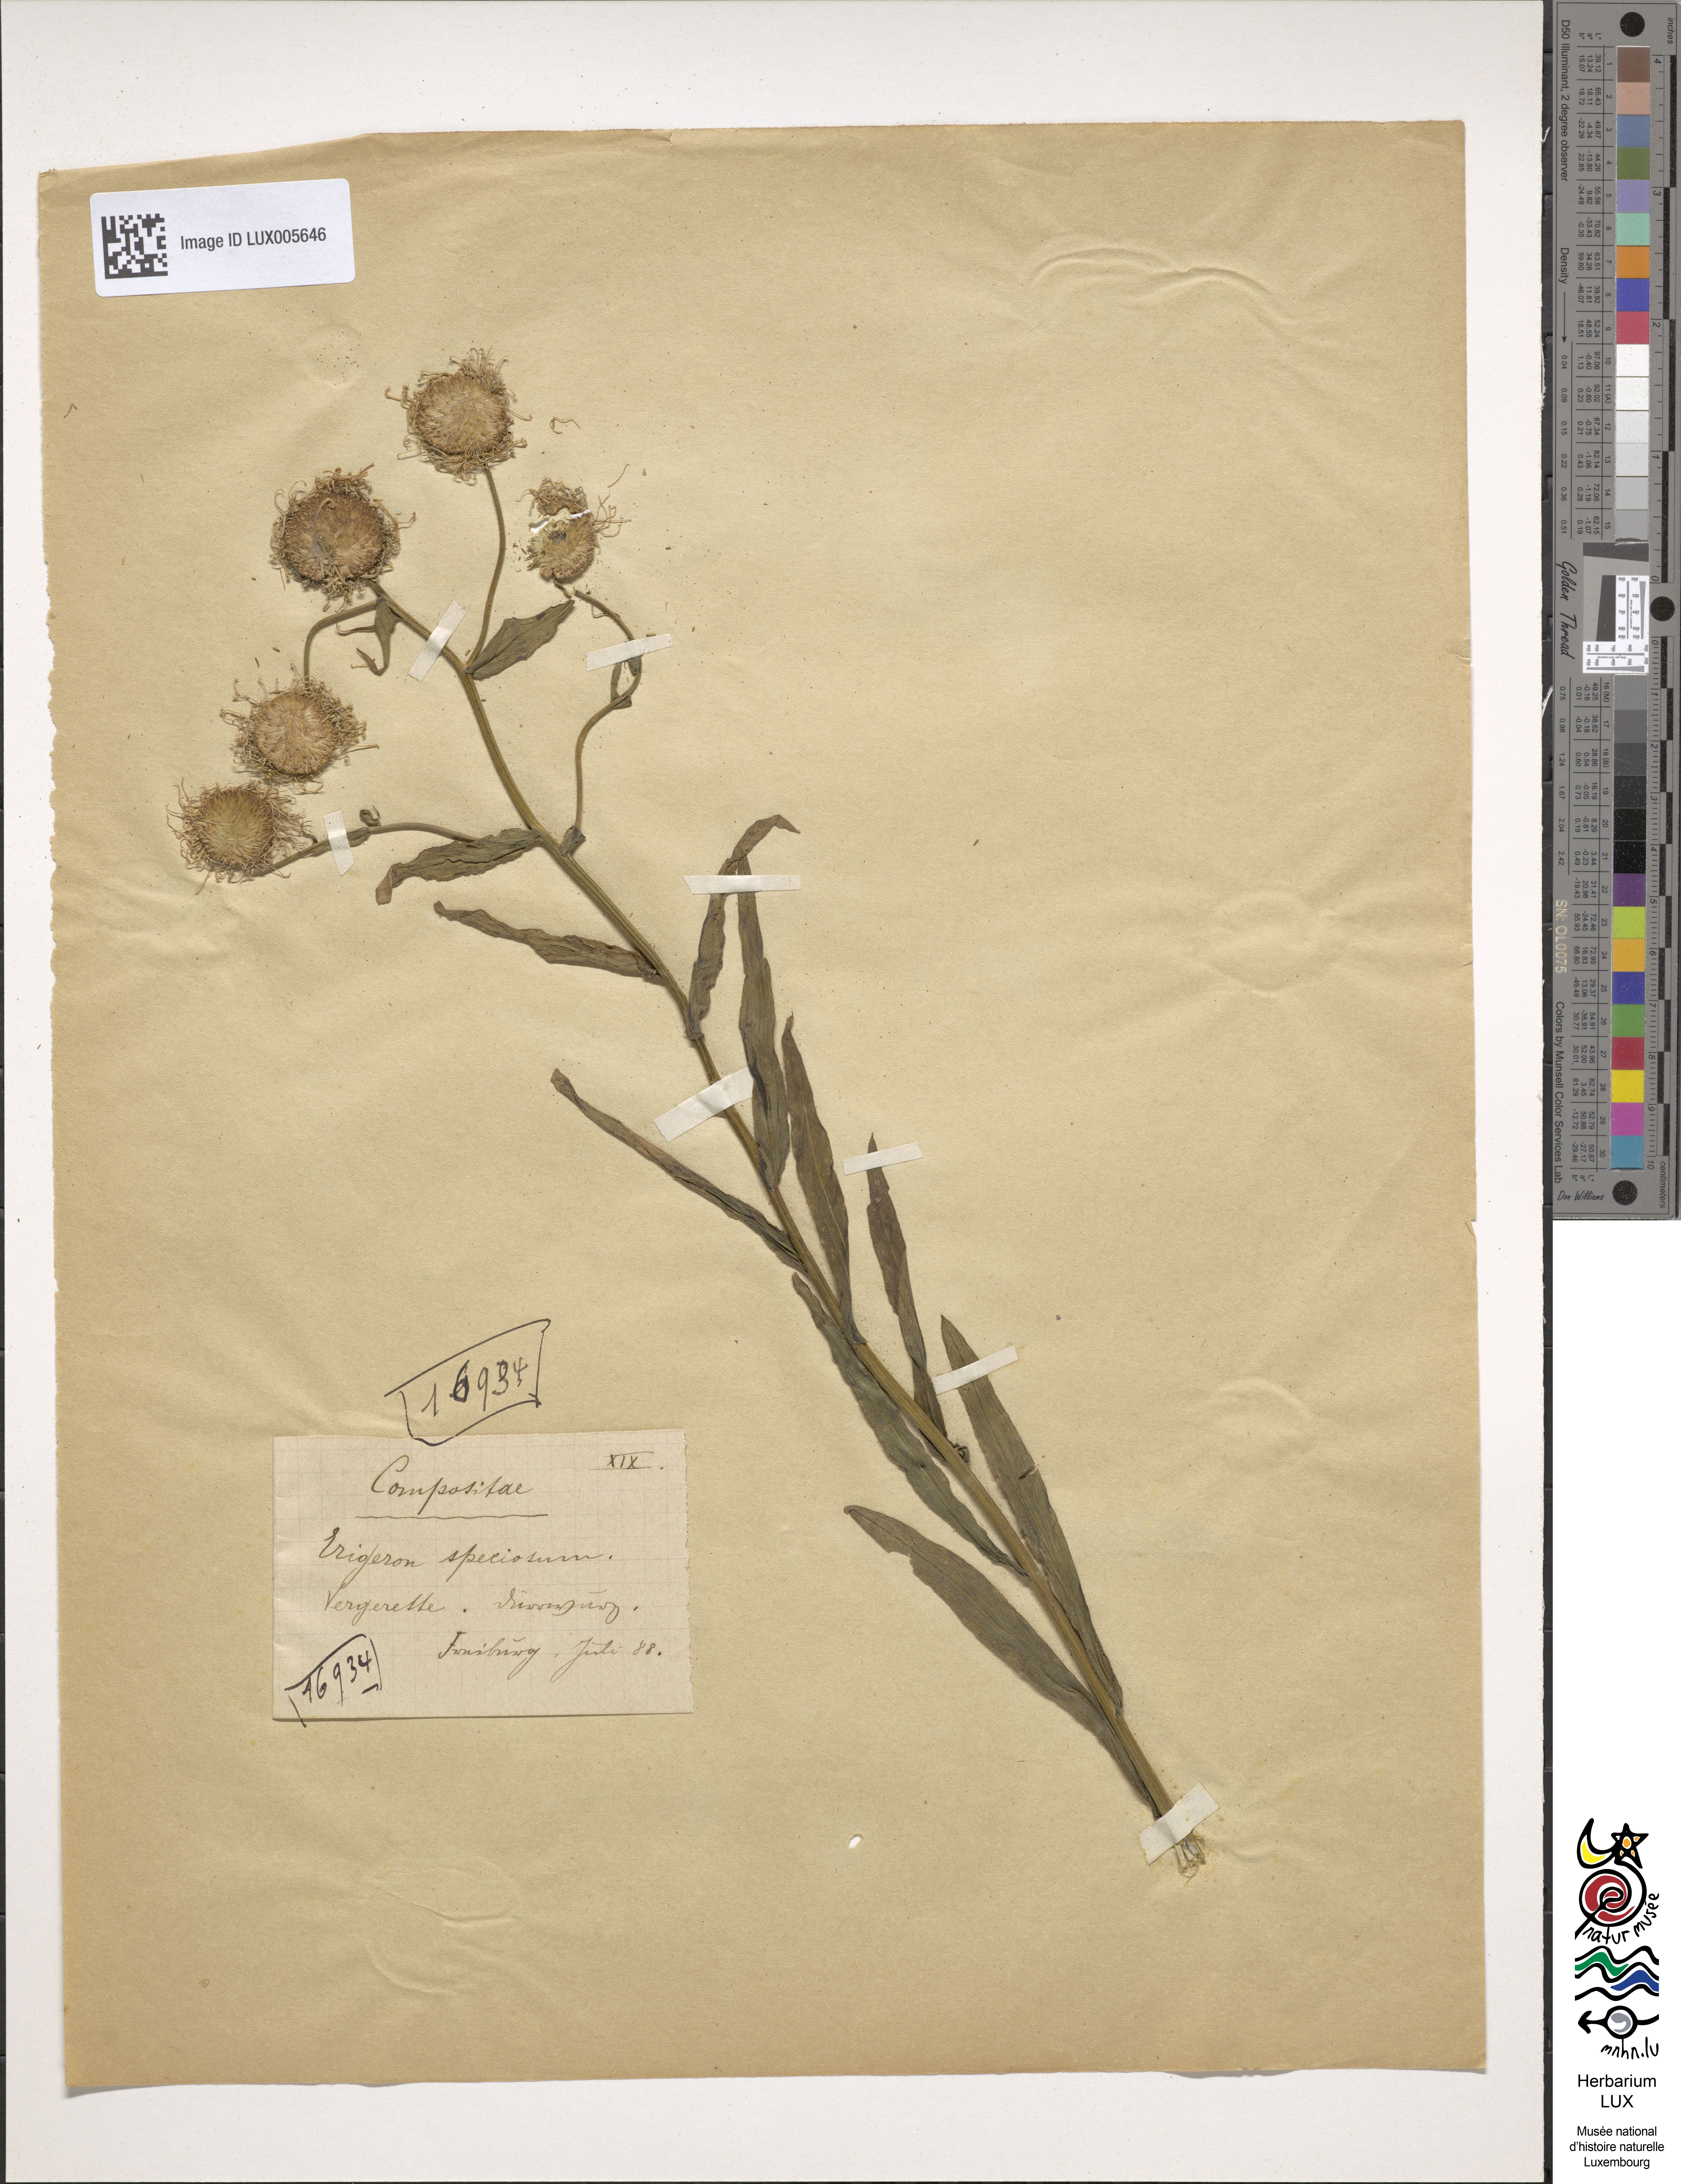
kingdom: Plantae
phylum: Tracheophyta
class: Magnoliopsida
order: Asterales
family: Asteraceae
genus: Erigeron
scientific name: Erigeron speciosus
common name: Aspen fleabane
